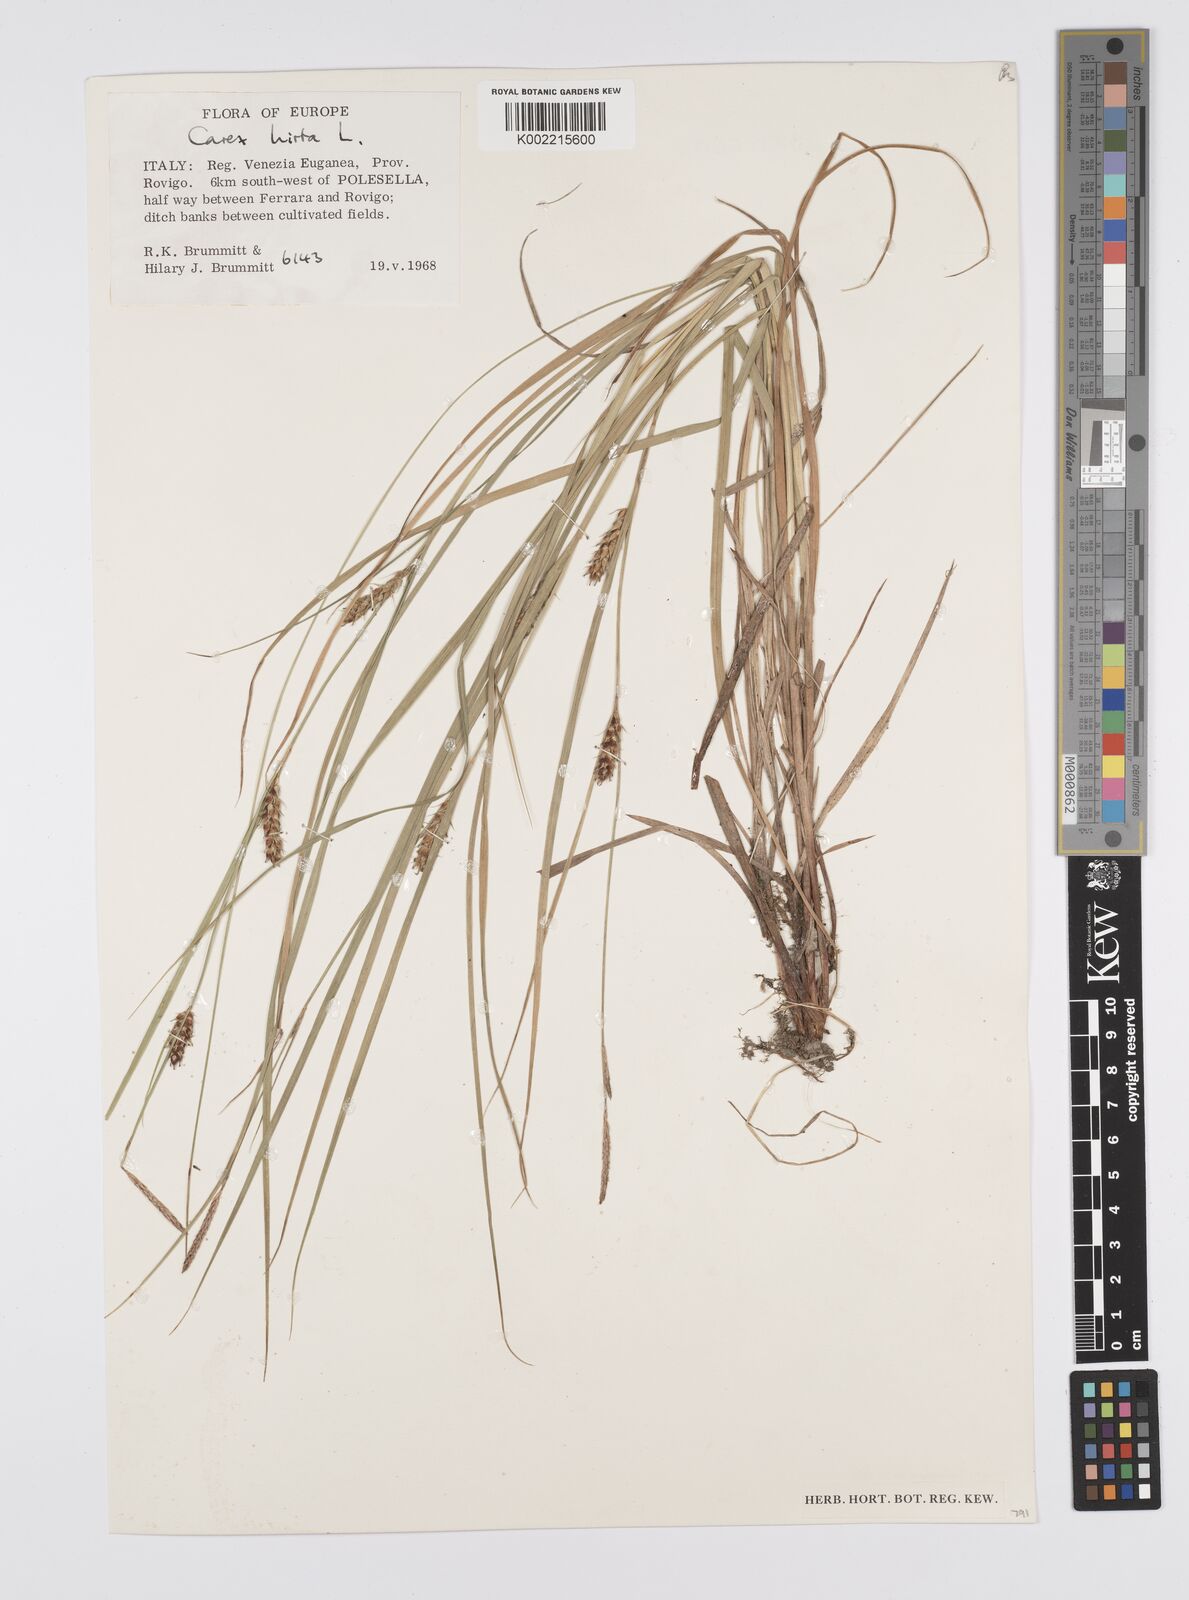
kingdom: Plantae
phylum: Tracheophyta
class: Liliopsida
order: Poales
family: Cyperaceae
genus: Carex
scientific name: Carex hirta
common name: Hairy sedge
